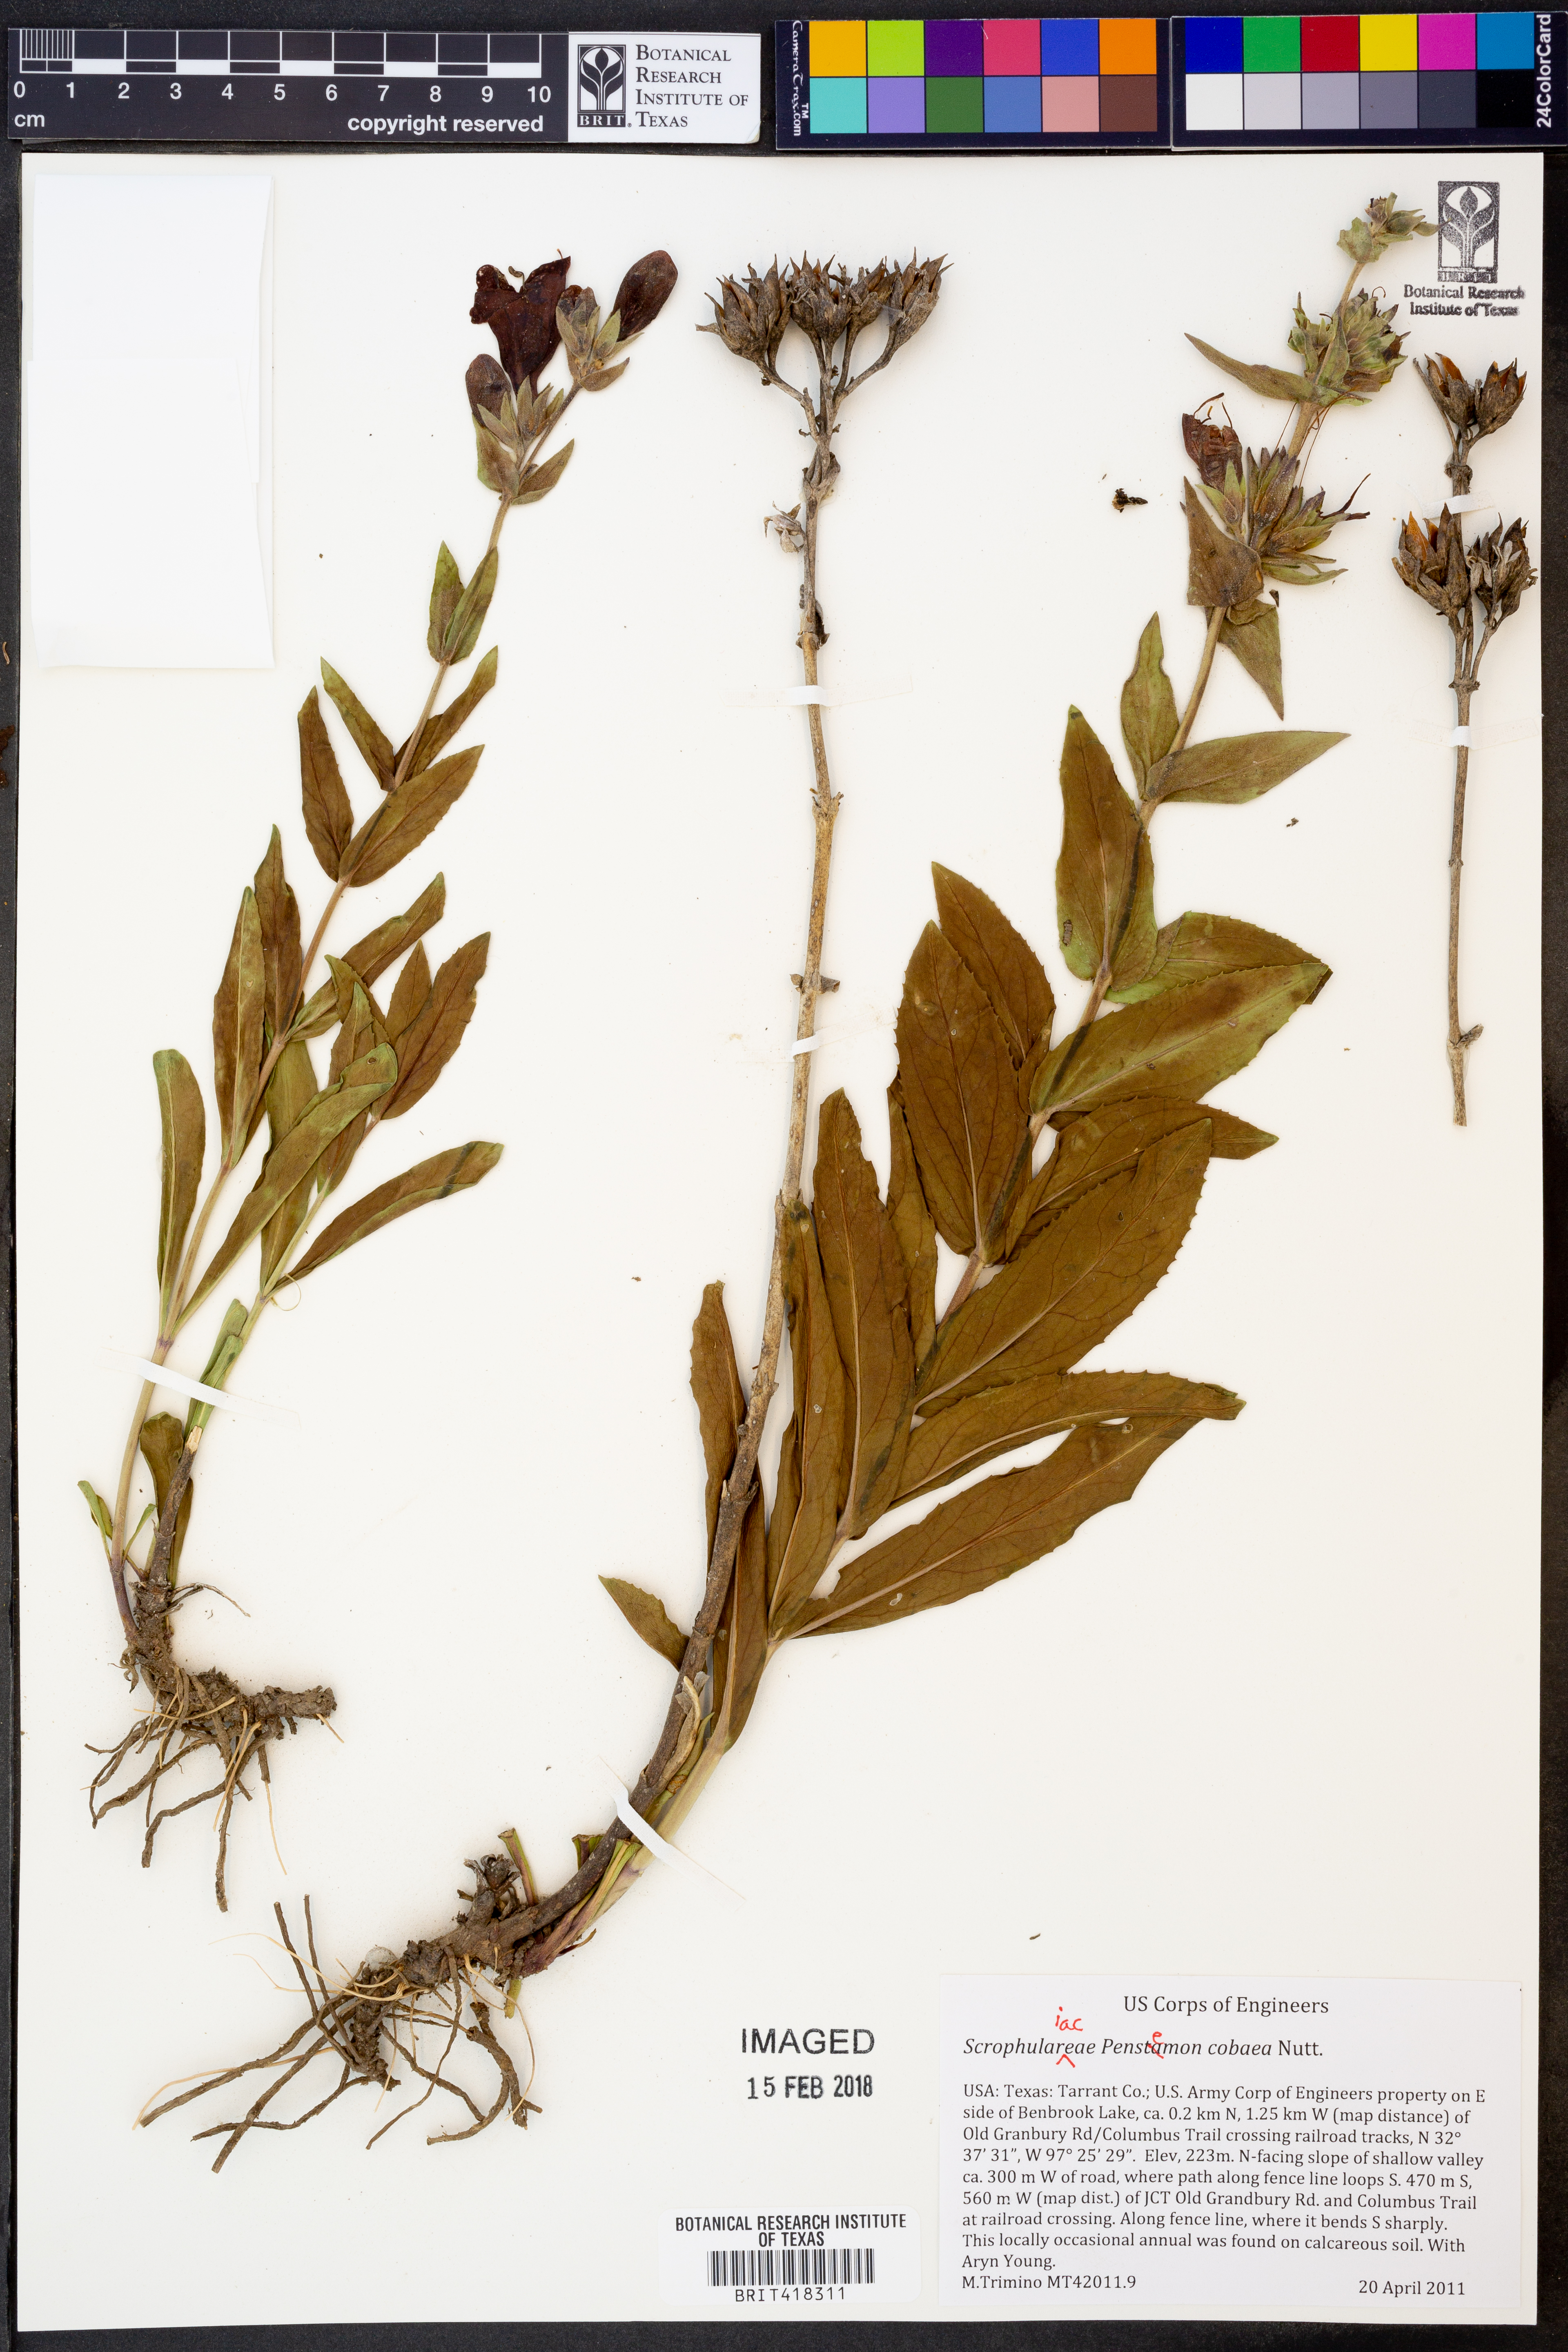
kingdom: Plantae
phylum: Tracheophyta
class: Magnoliopsida
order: Lamiales
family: Plantaginaceae
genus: Penstemon
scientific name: Penstemon cobaea
